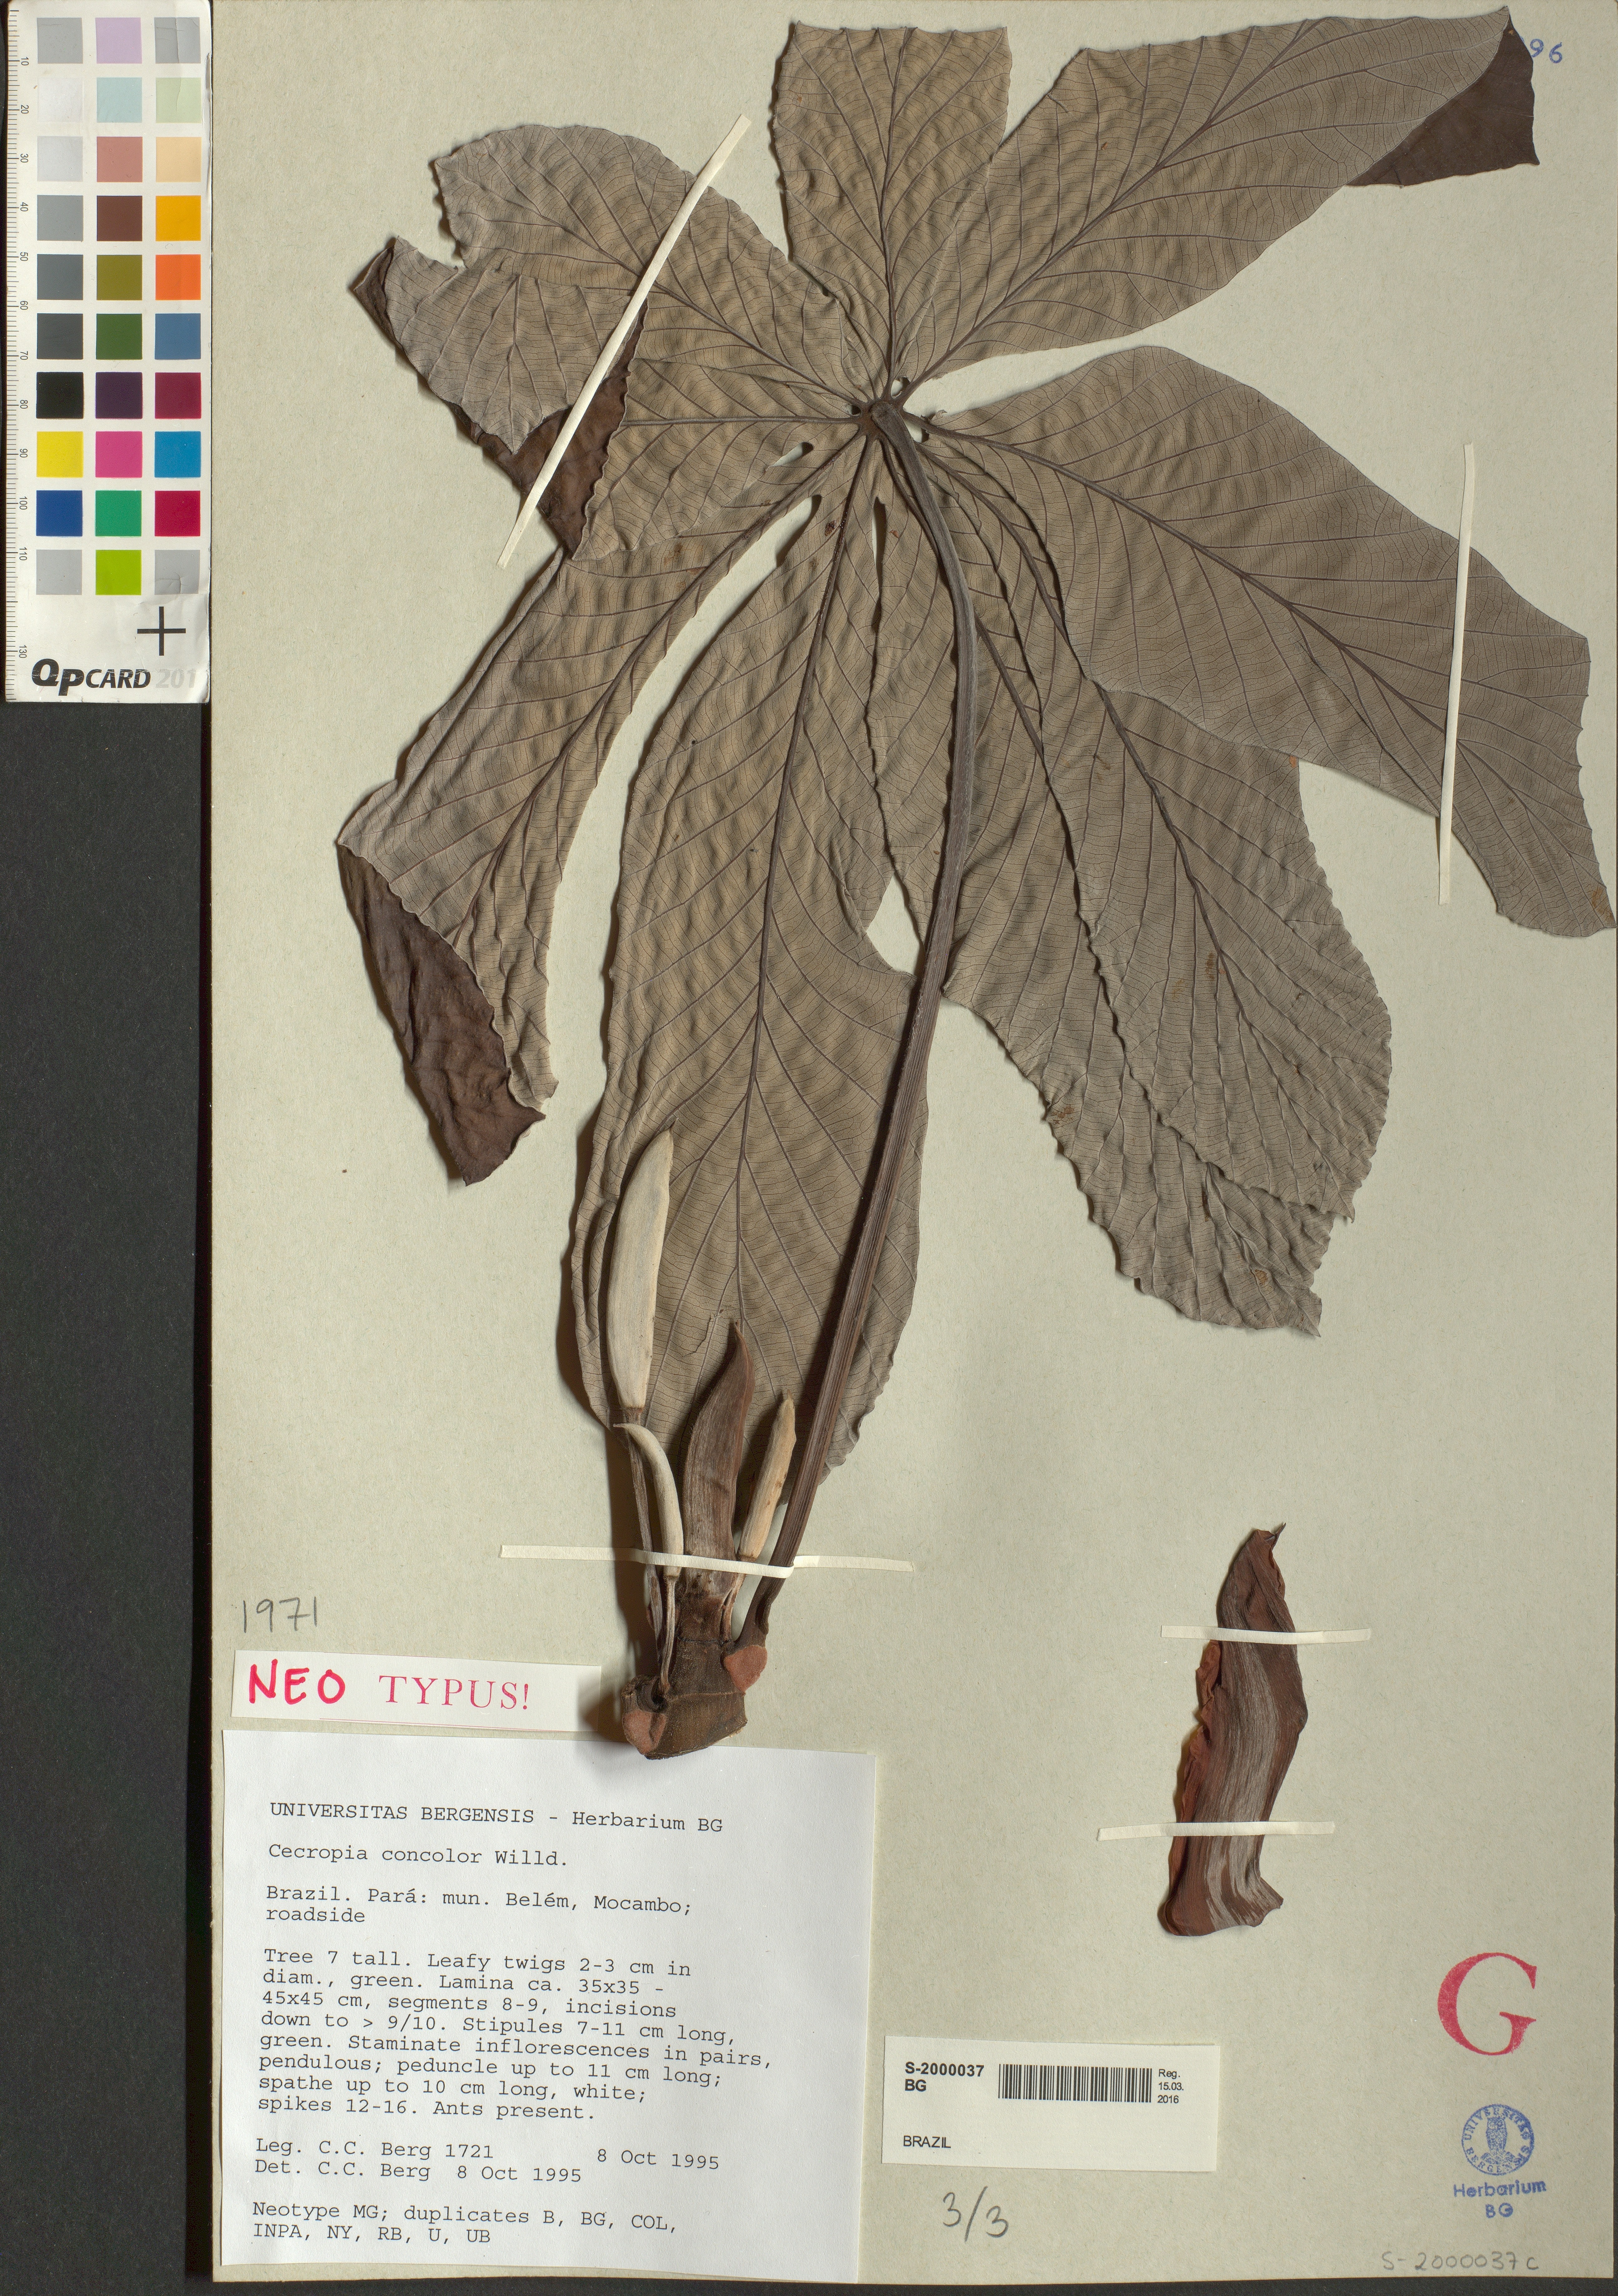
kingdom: Plantae
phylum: Tracheophyta
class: Magnoliopsida
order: Rosales
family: Urticaceae
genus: Cecropia
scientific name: Cecropia concolor
